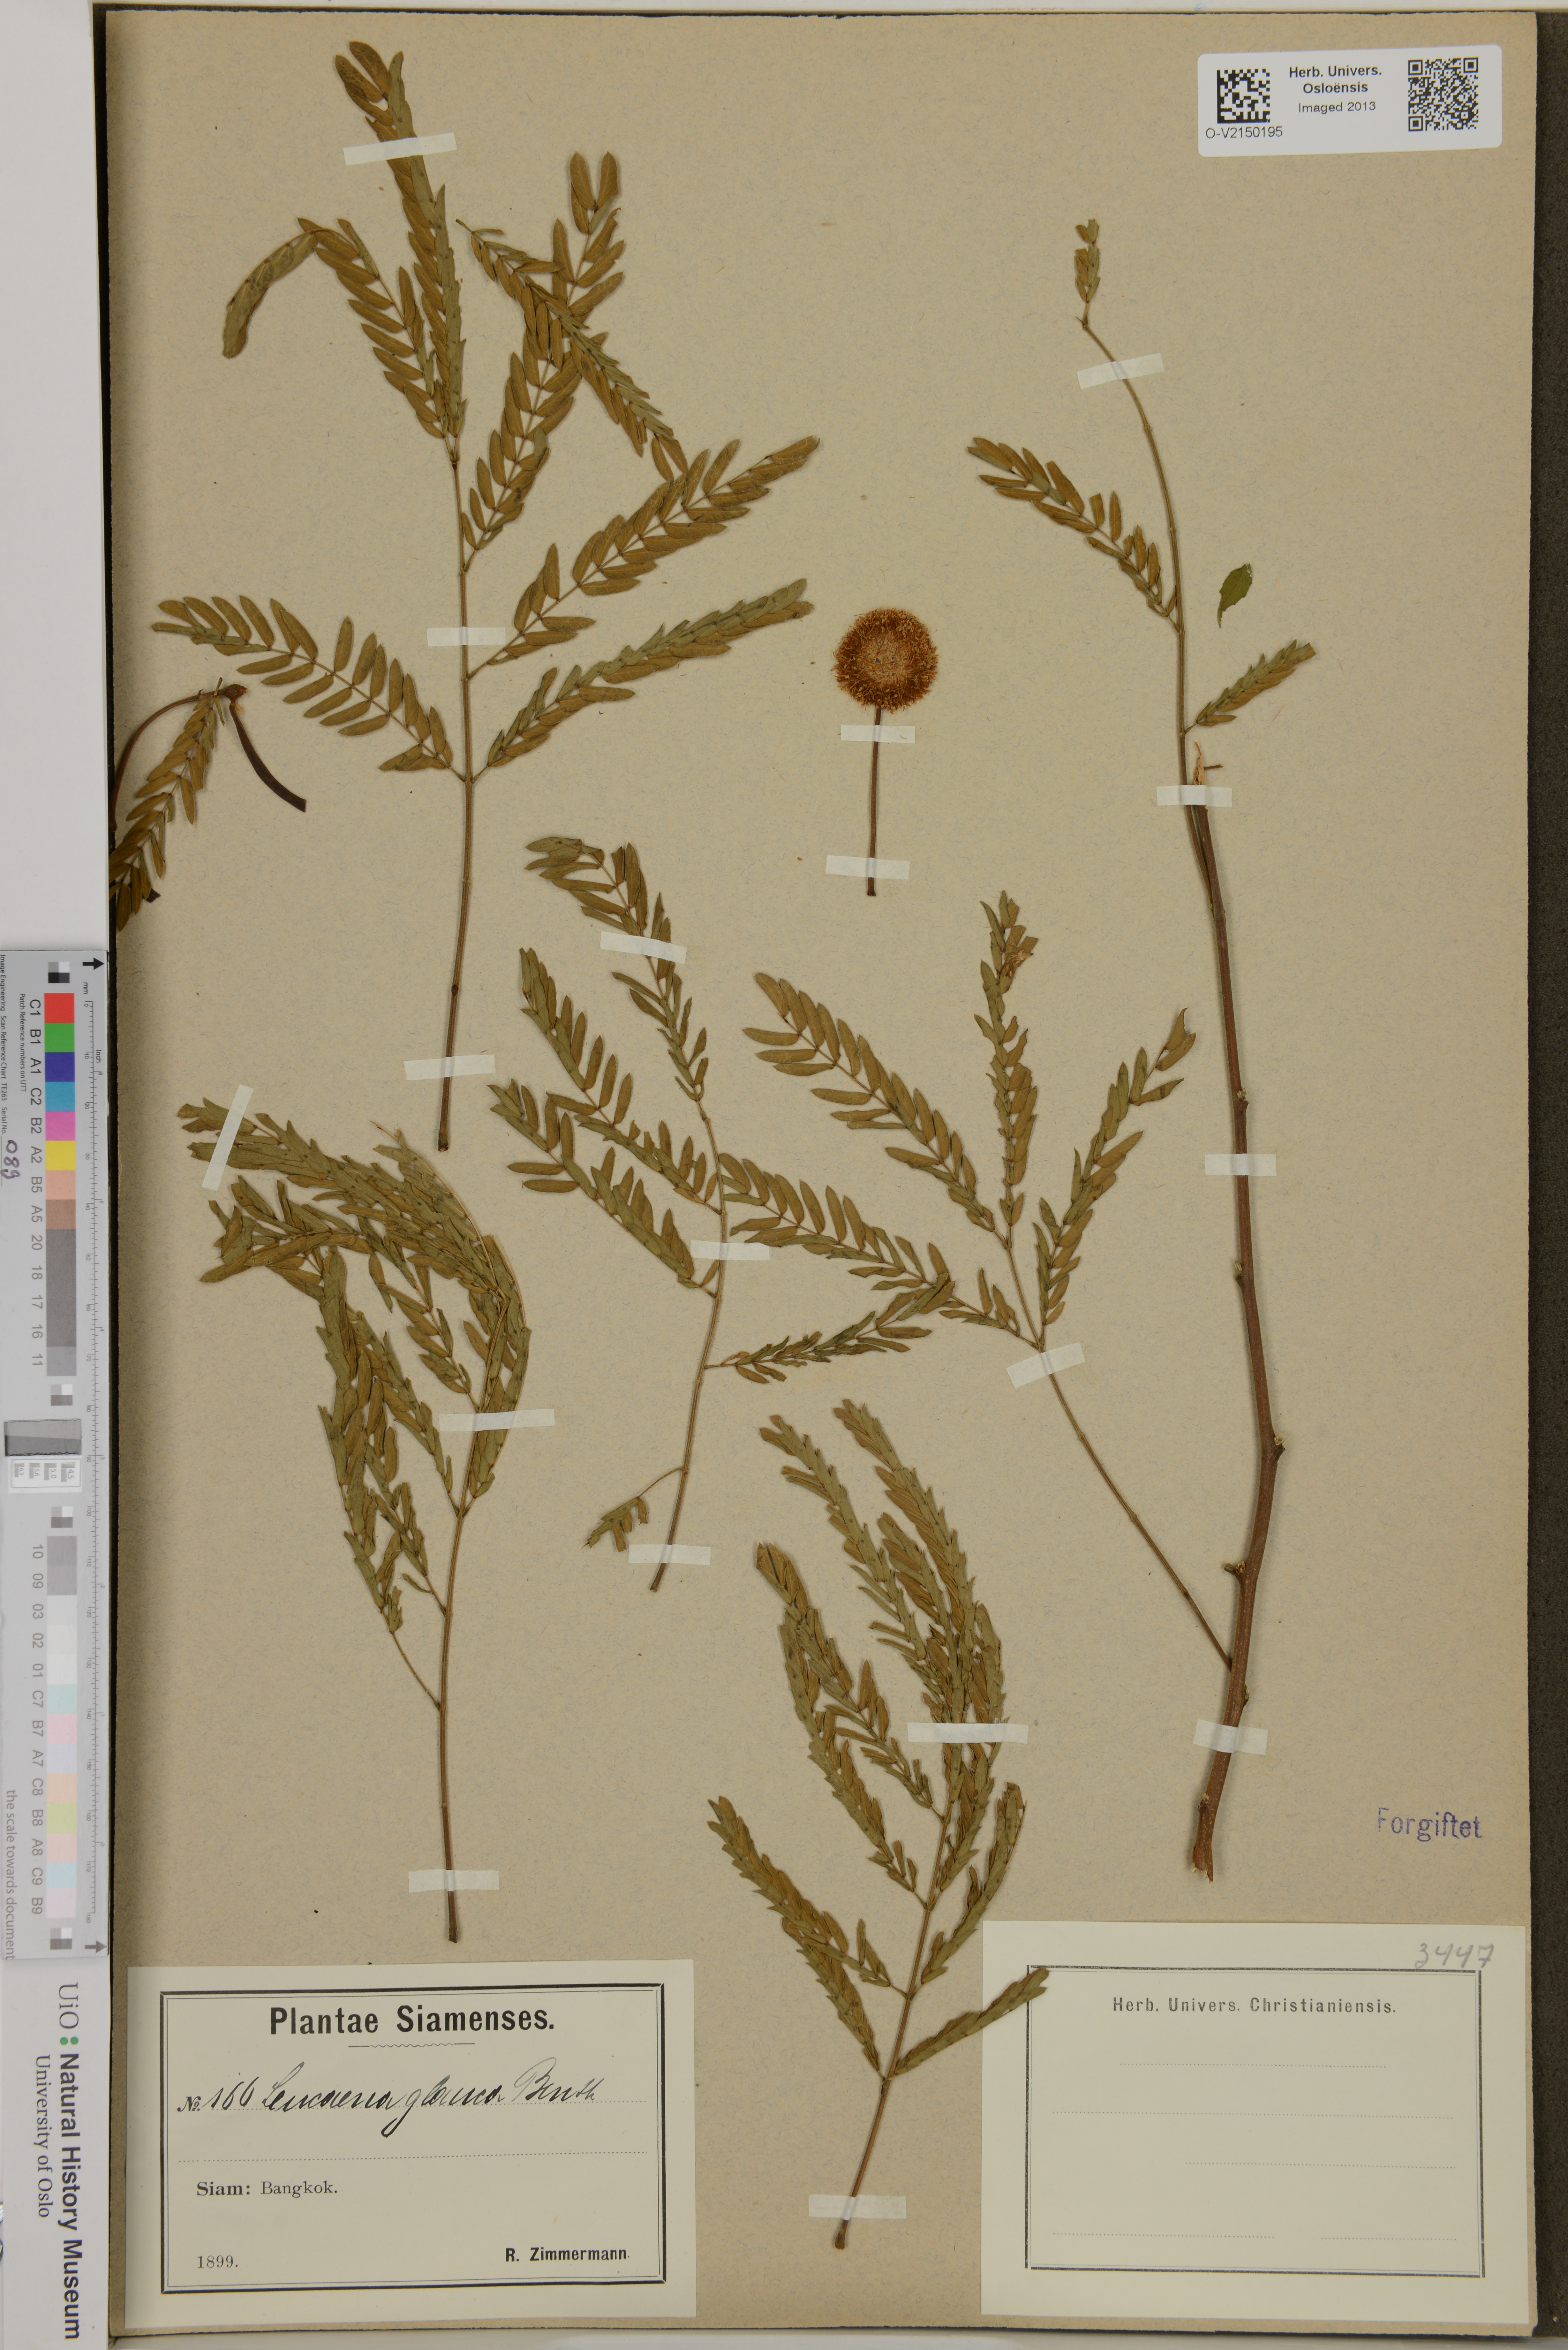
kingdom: Plantae
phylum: Tracheophyta
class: Magnoliopsida
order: Fabales
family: Fabaceae
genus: Acaciella
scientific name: Acaciella glauca
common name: Redwood
